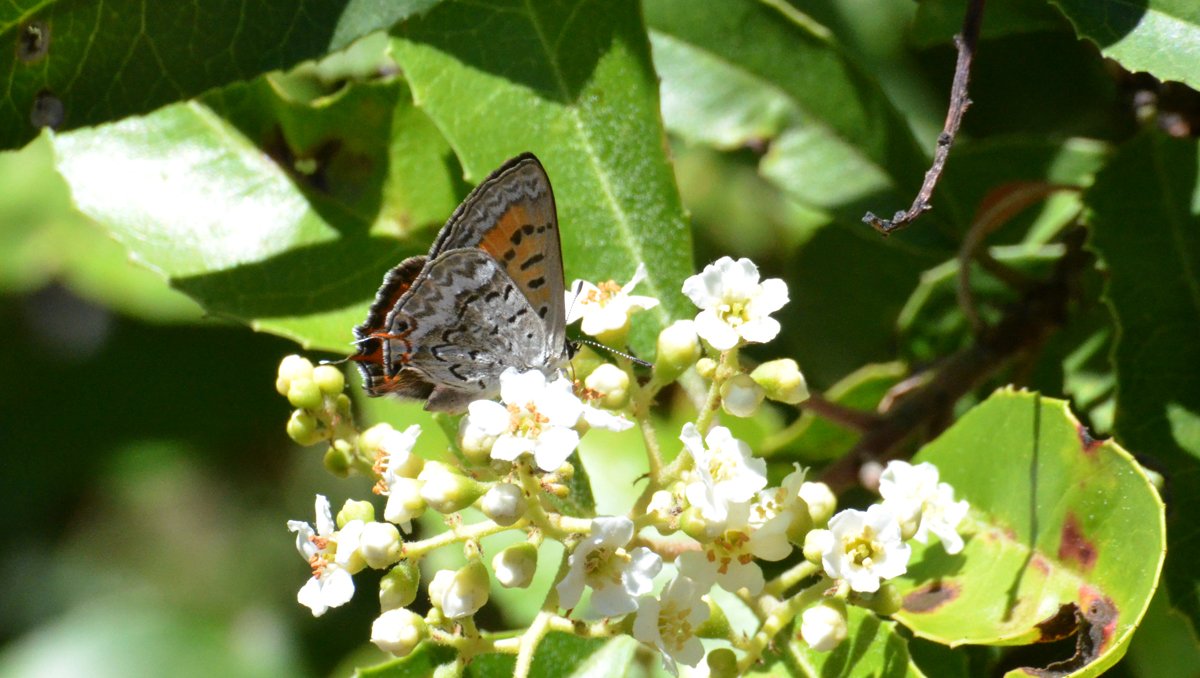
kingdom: Animalia
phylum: Arthropoda
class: Insecta
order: Lepidoptera
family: Sesiidae
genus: Sesia
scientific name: Sesia Lycaena arota
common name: Tailed Copper
